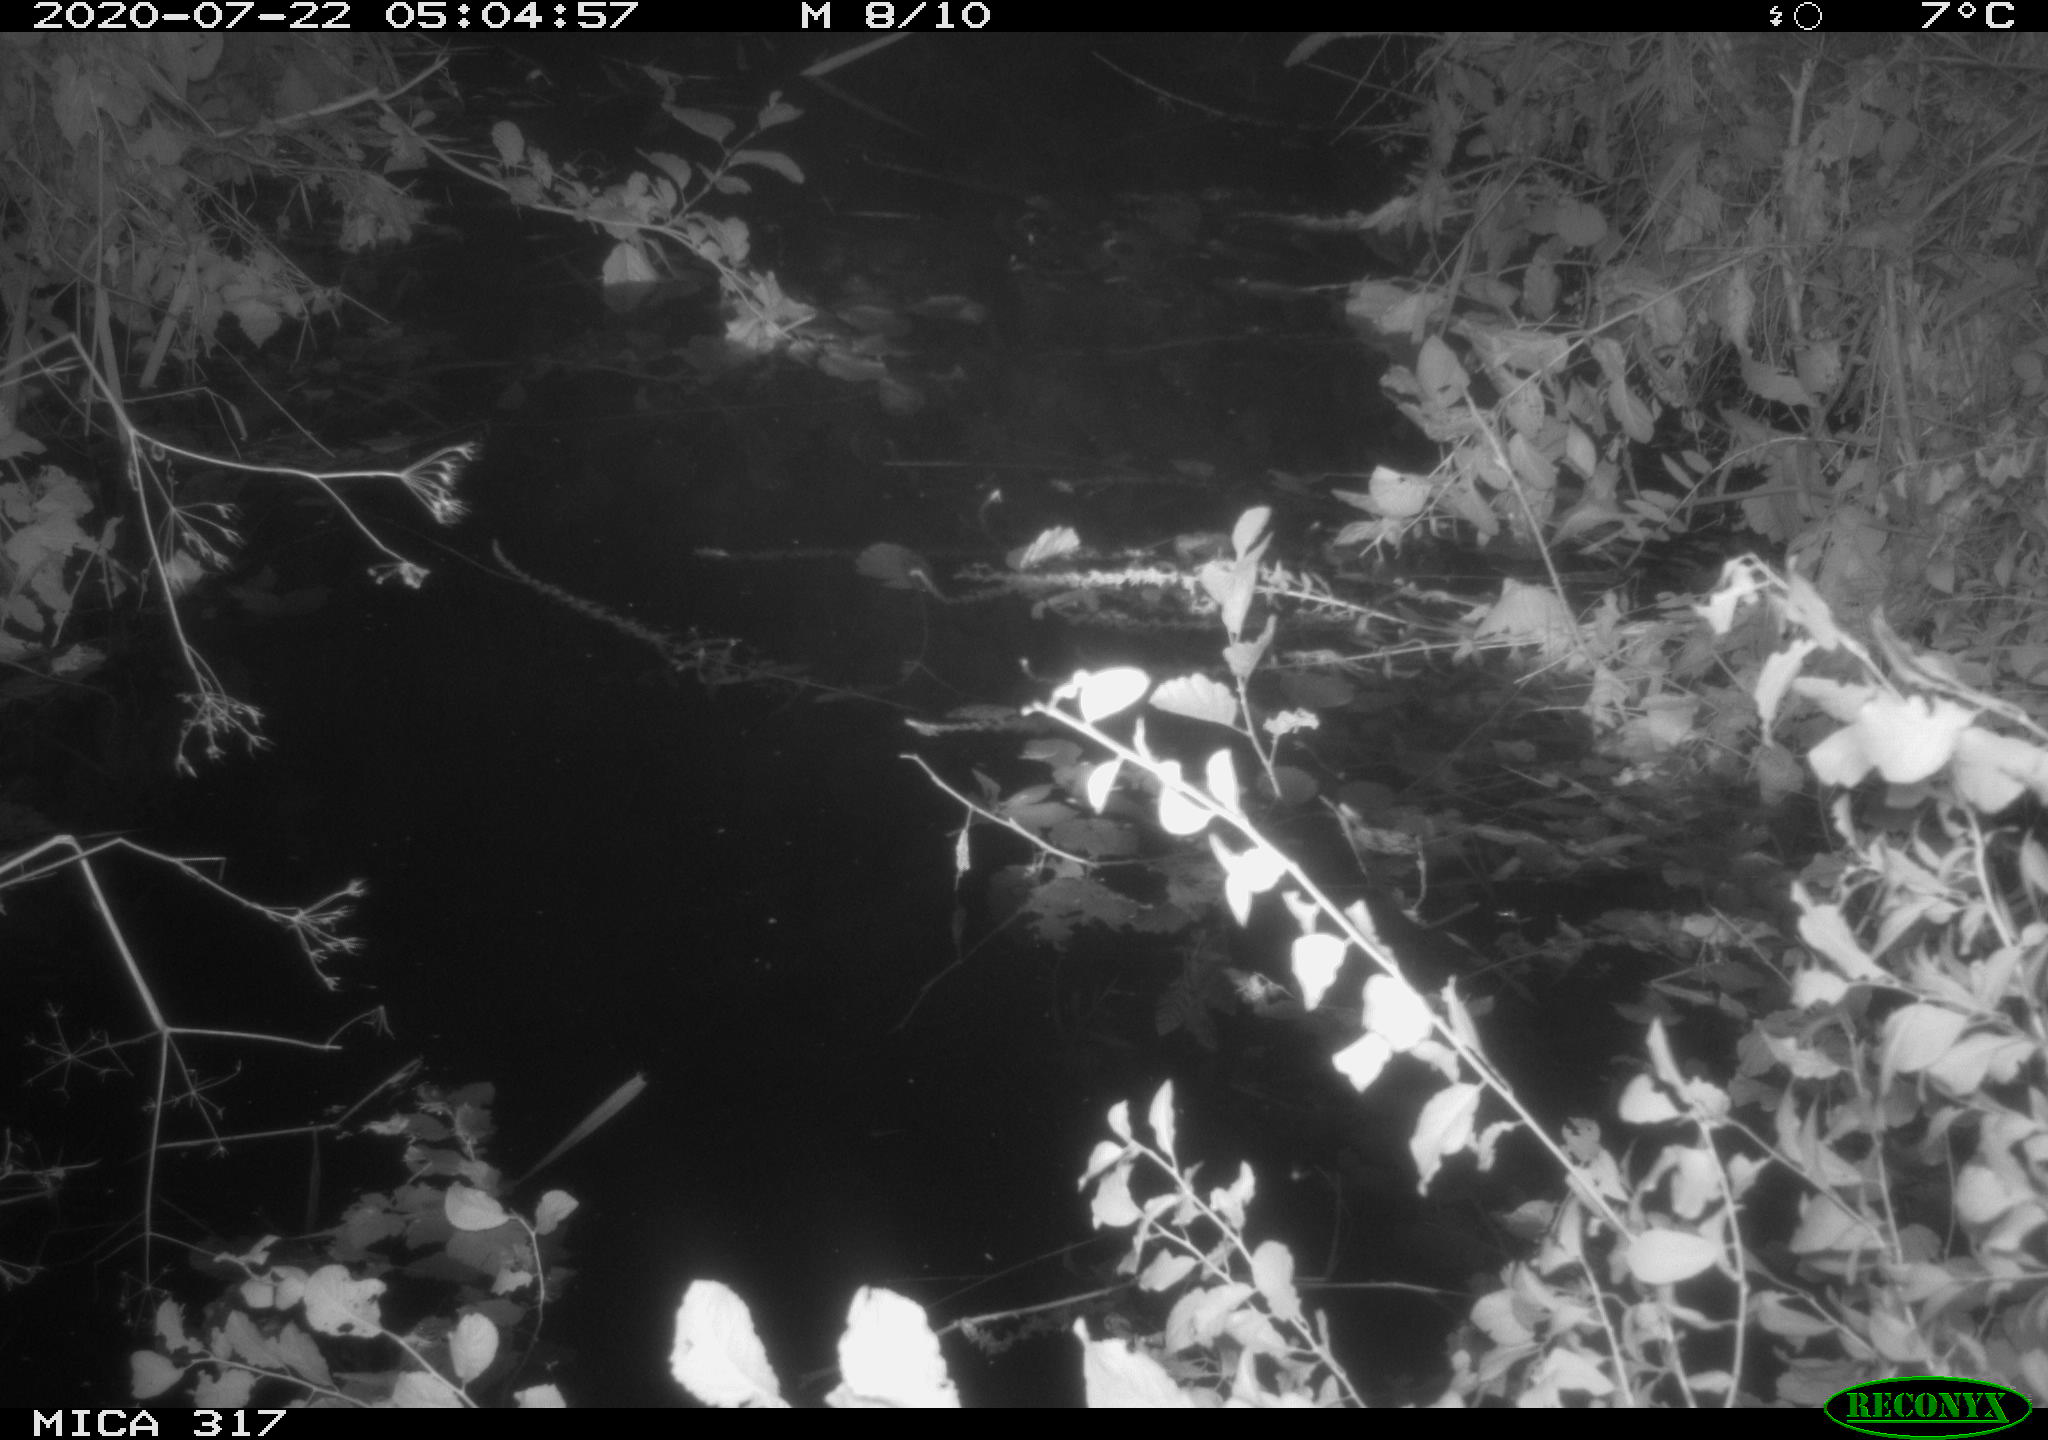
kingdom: Animalia
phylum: Chordata
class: Aves
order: Anseriformes
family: Anatidae
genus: Anas
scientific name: Anas platyrhynchos
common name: Mallard
